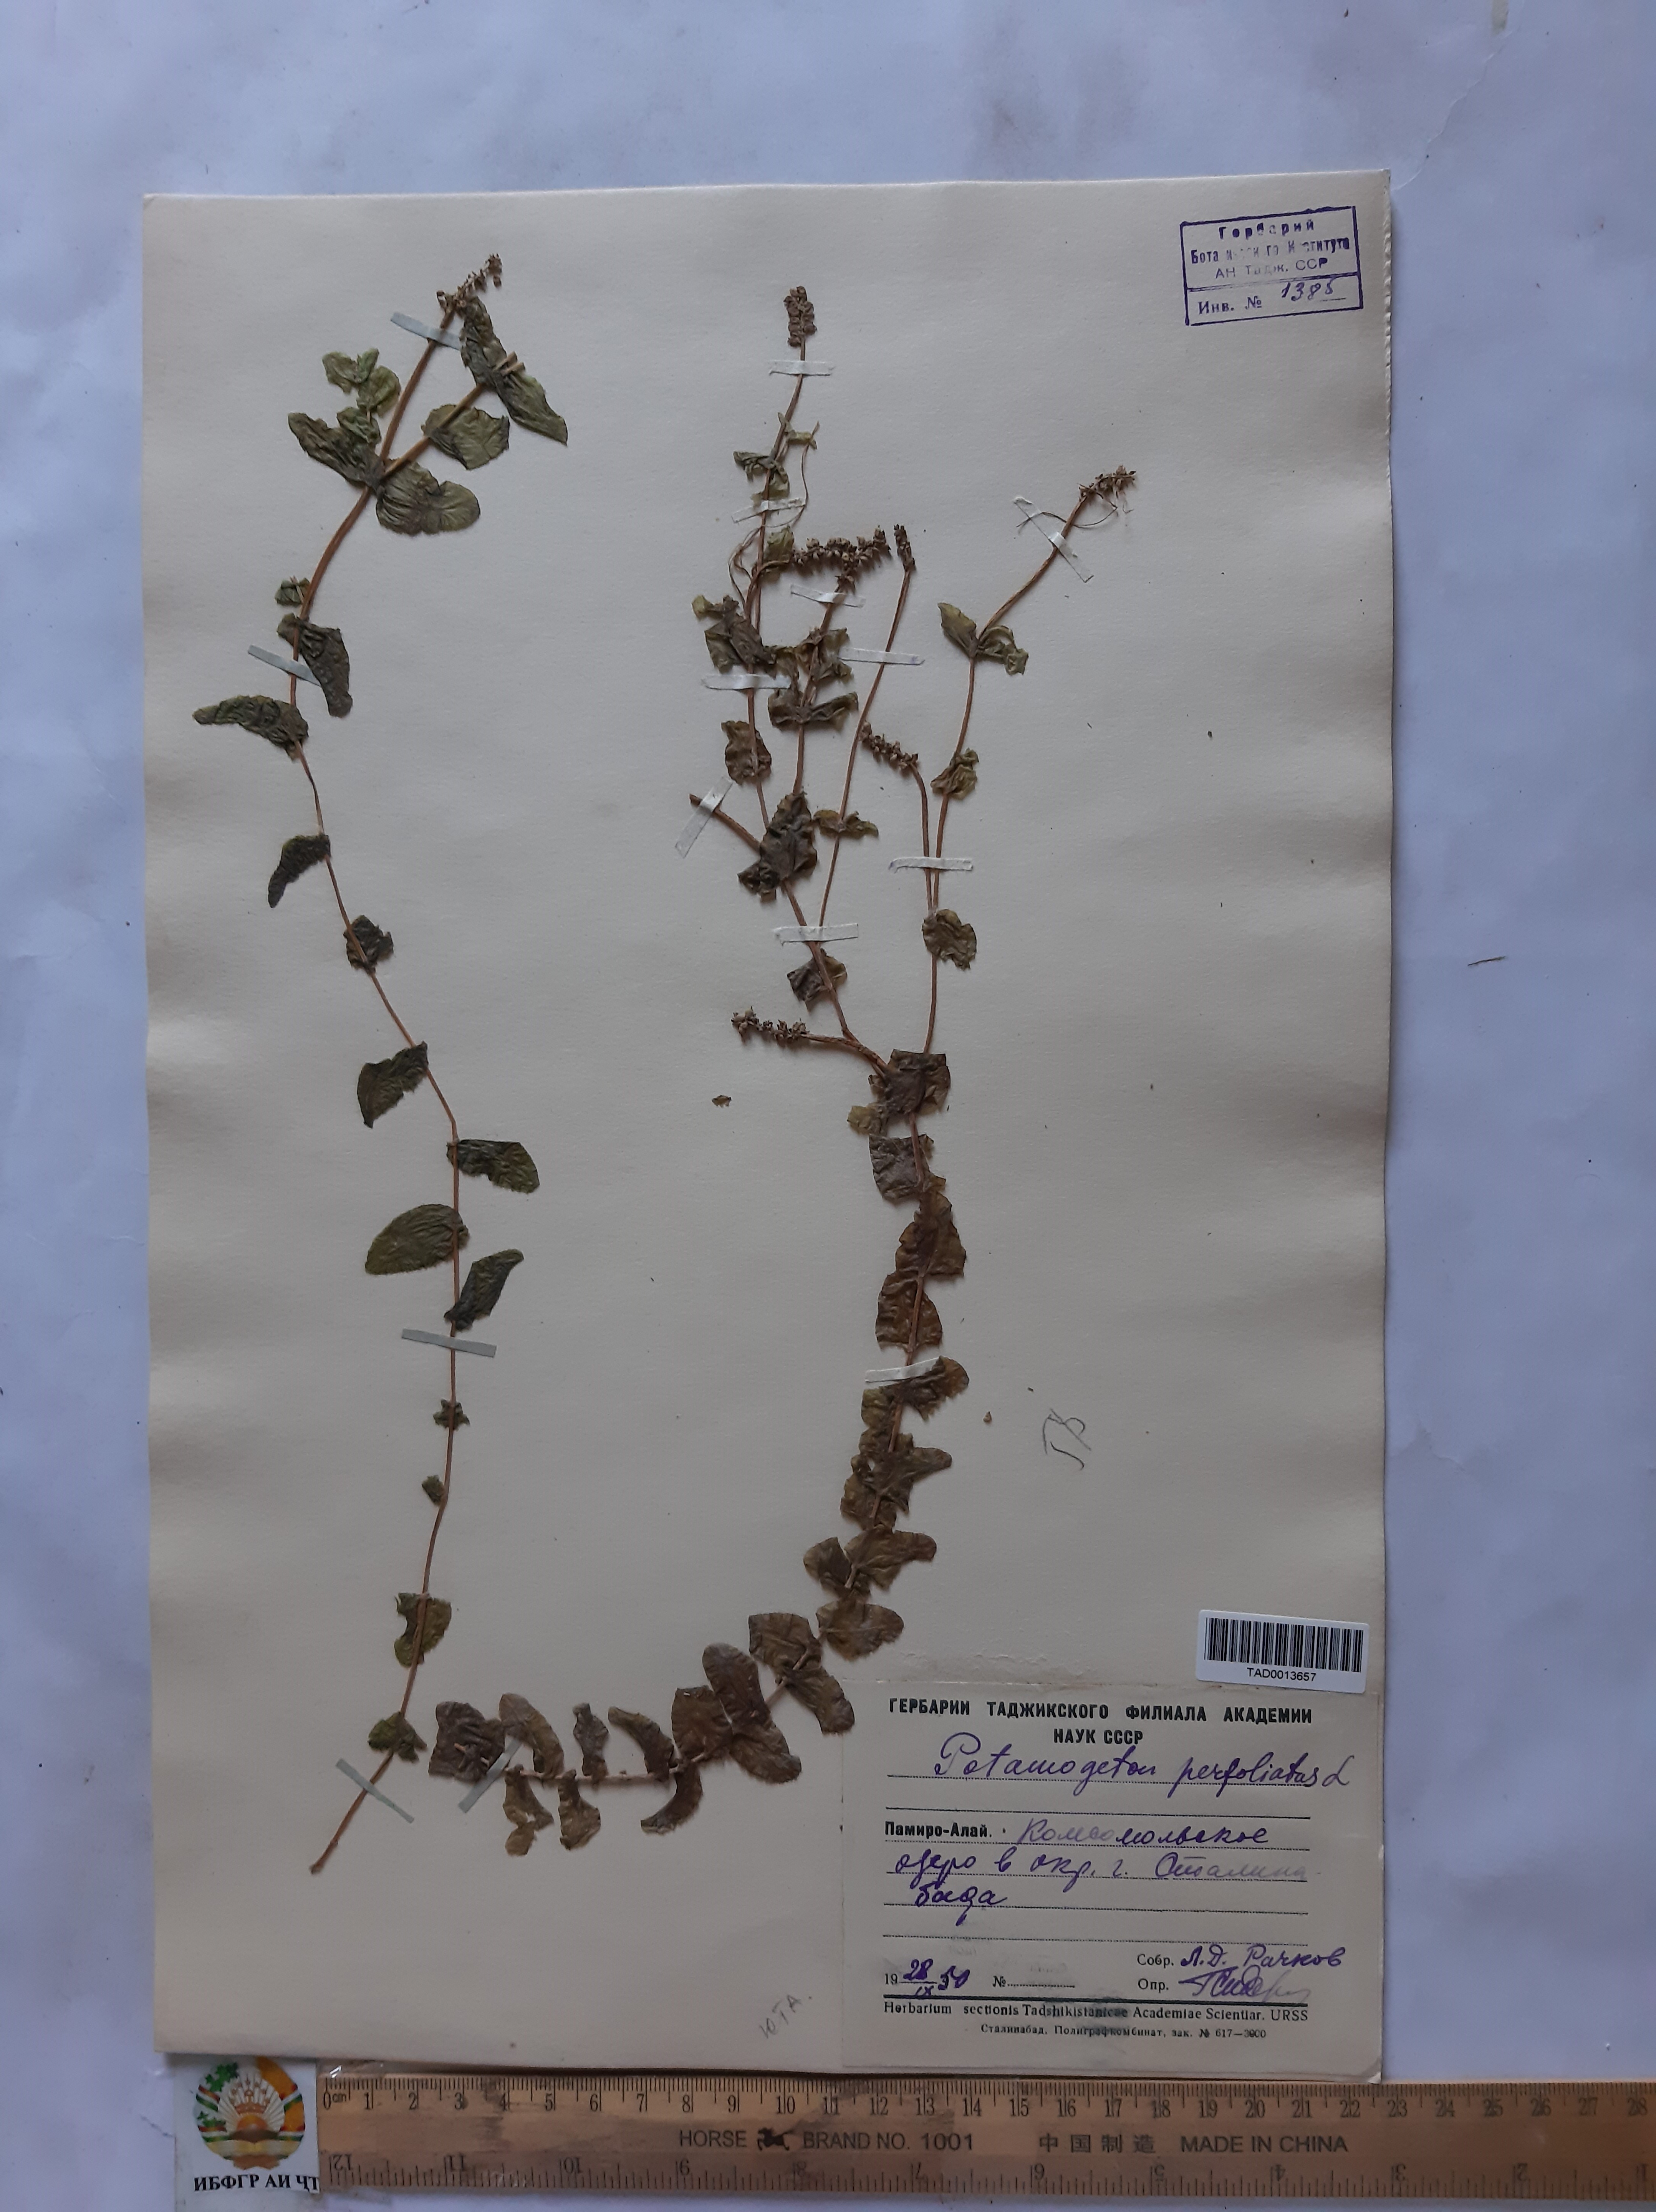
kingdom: Plantae
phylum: Tracheophyta
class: Liliopsida
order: Alismatales
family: Potamogetonaceae
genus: Potamogeton
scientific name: Potamogeton perfoliatus
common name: Perfoliate pondweed
